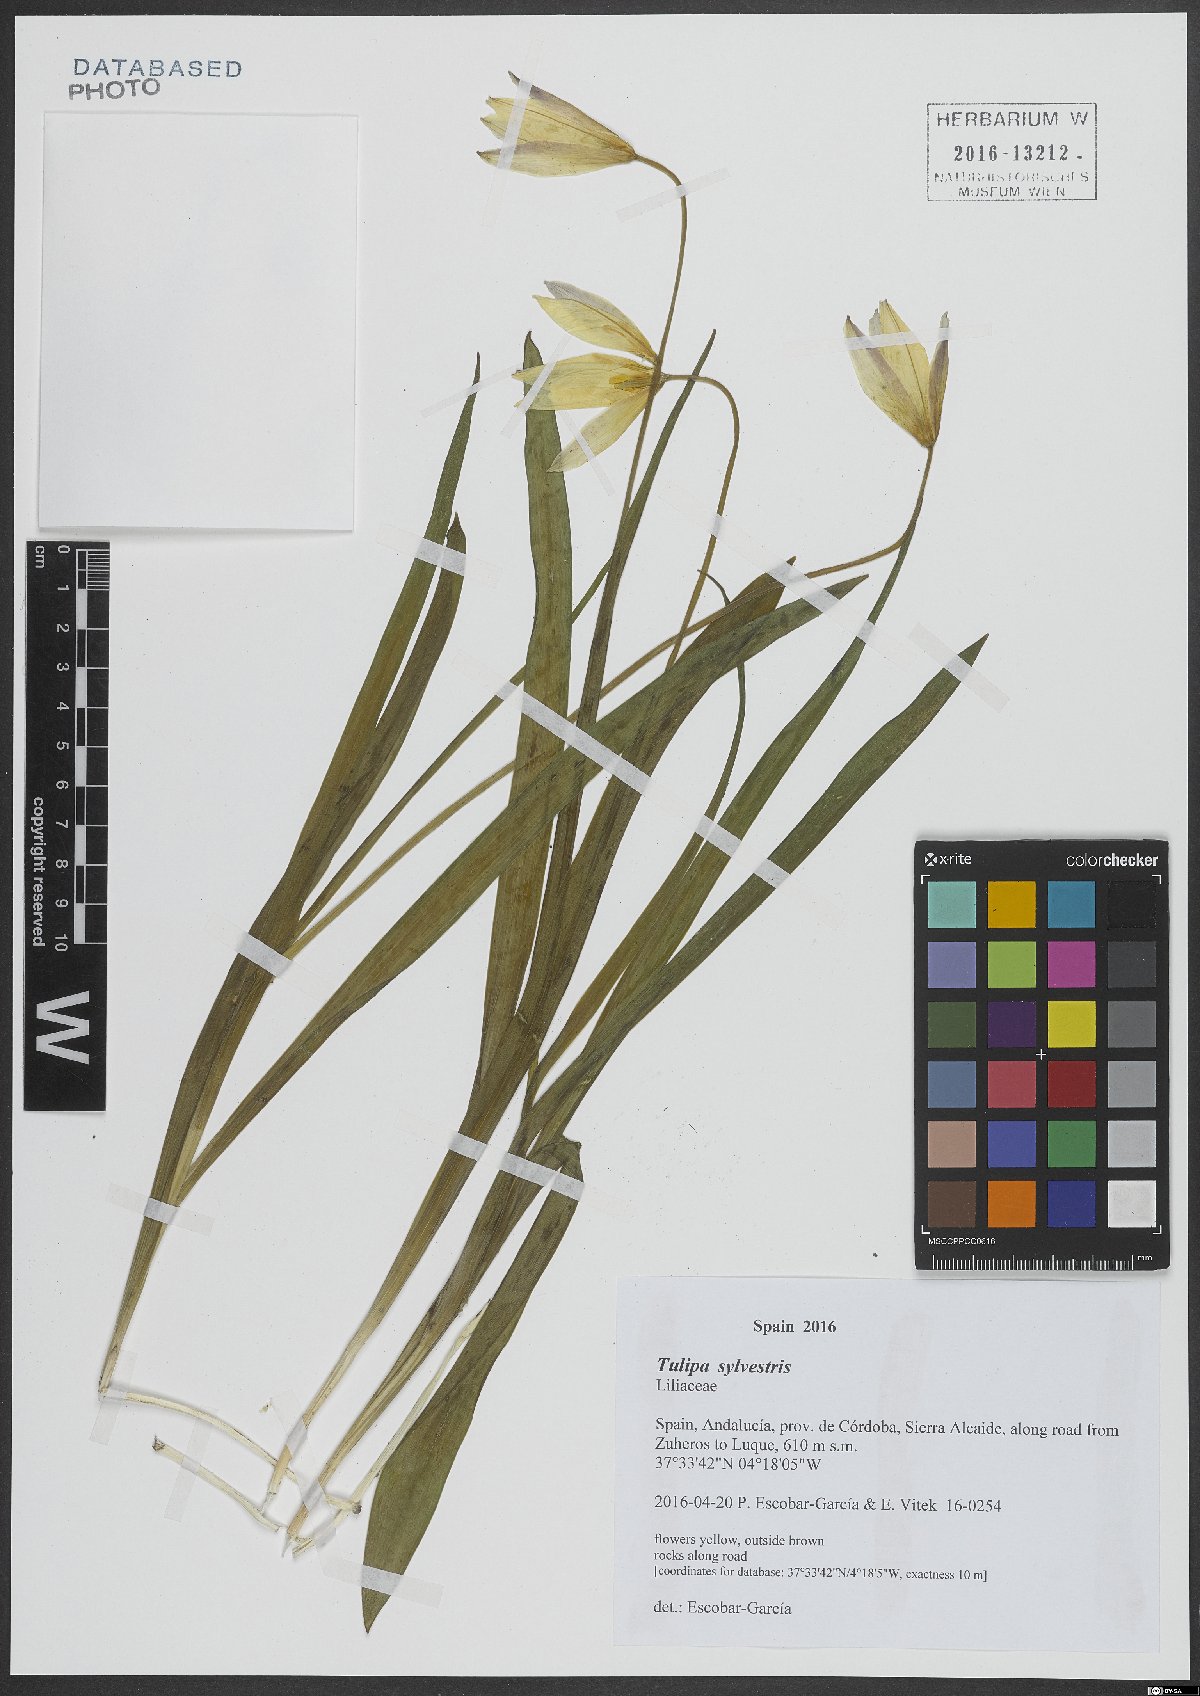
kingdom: Plantae
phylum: Tracheophyta
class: Liliopsida
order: Liliales
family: Liliaceae
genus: Tulipa
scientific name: Tulipa sylvestris
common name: Wild tulip
